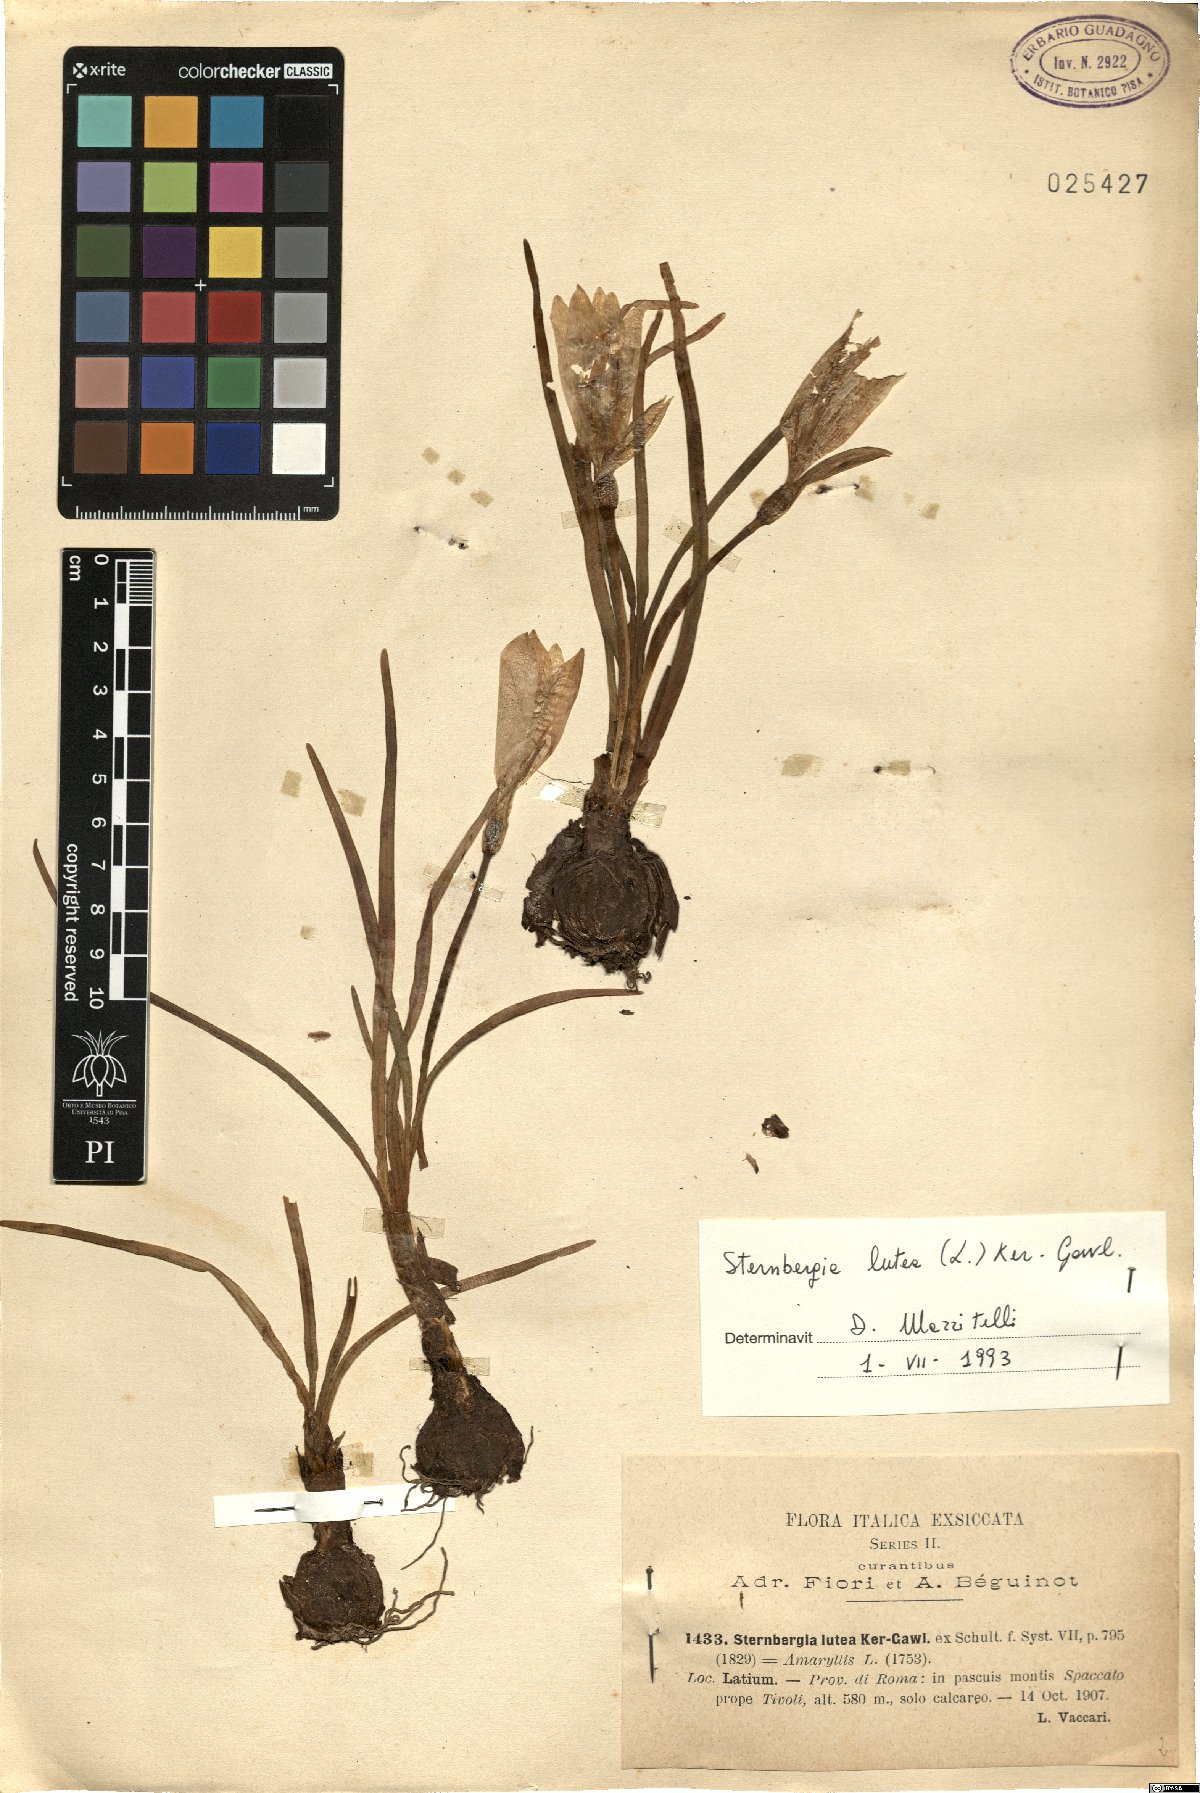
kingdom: Plantae
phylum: Tracheophyta
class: Liliopsida
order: Asparagales
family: Amaryllidaceae
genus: Sternbergia
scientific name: Sternbergia lutea
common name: Winter daffodil
